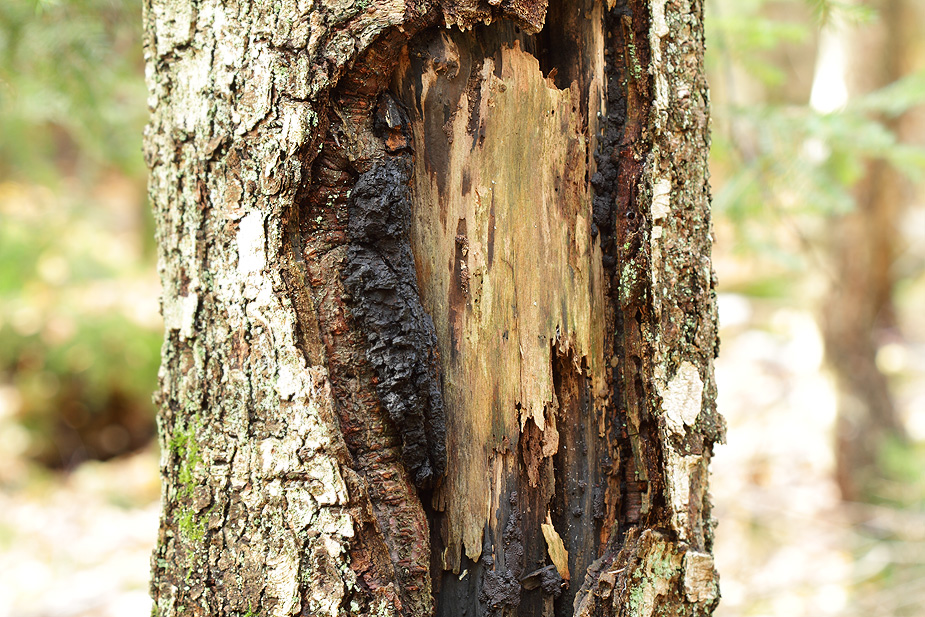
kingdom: Fungi
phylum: Basidiomycota
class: Agaricomycetes
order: Hymenochaetales
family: Hymenochaetaceae
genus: Inonotus
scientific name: Inonotus obliquus
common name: birke-spejlporesvamp
